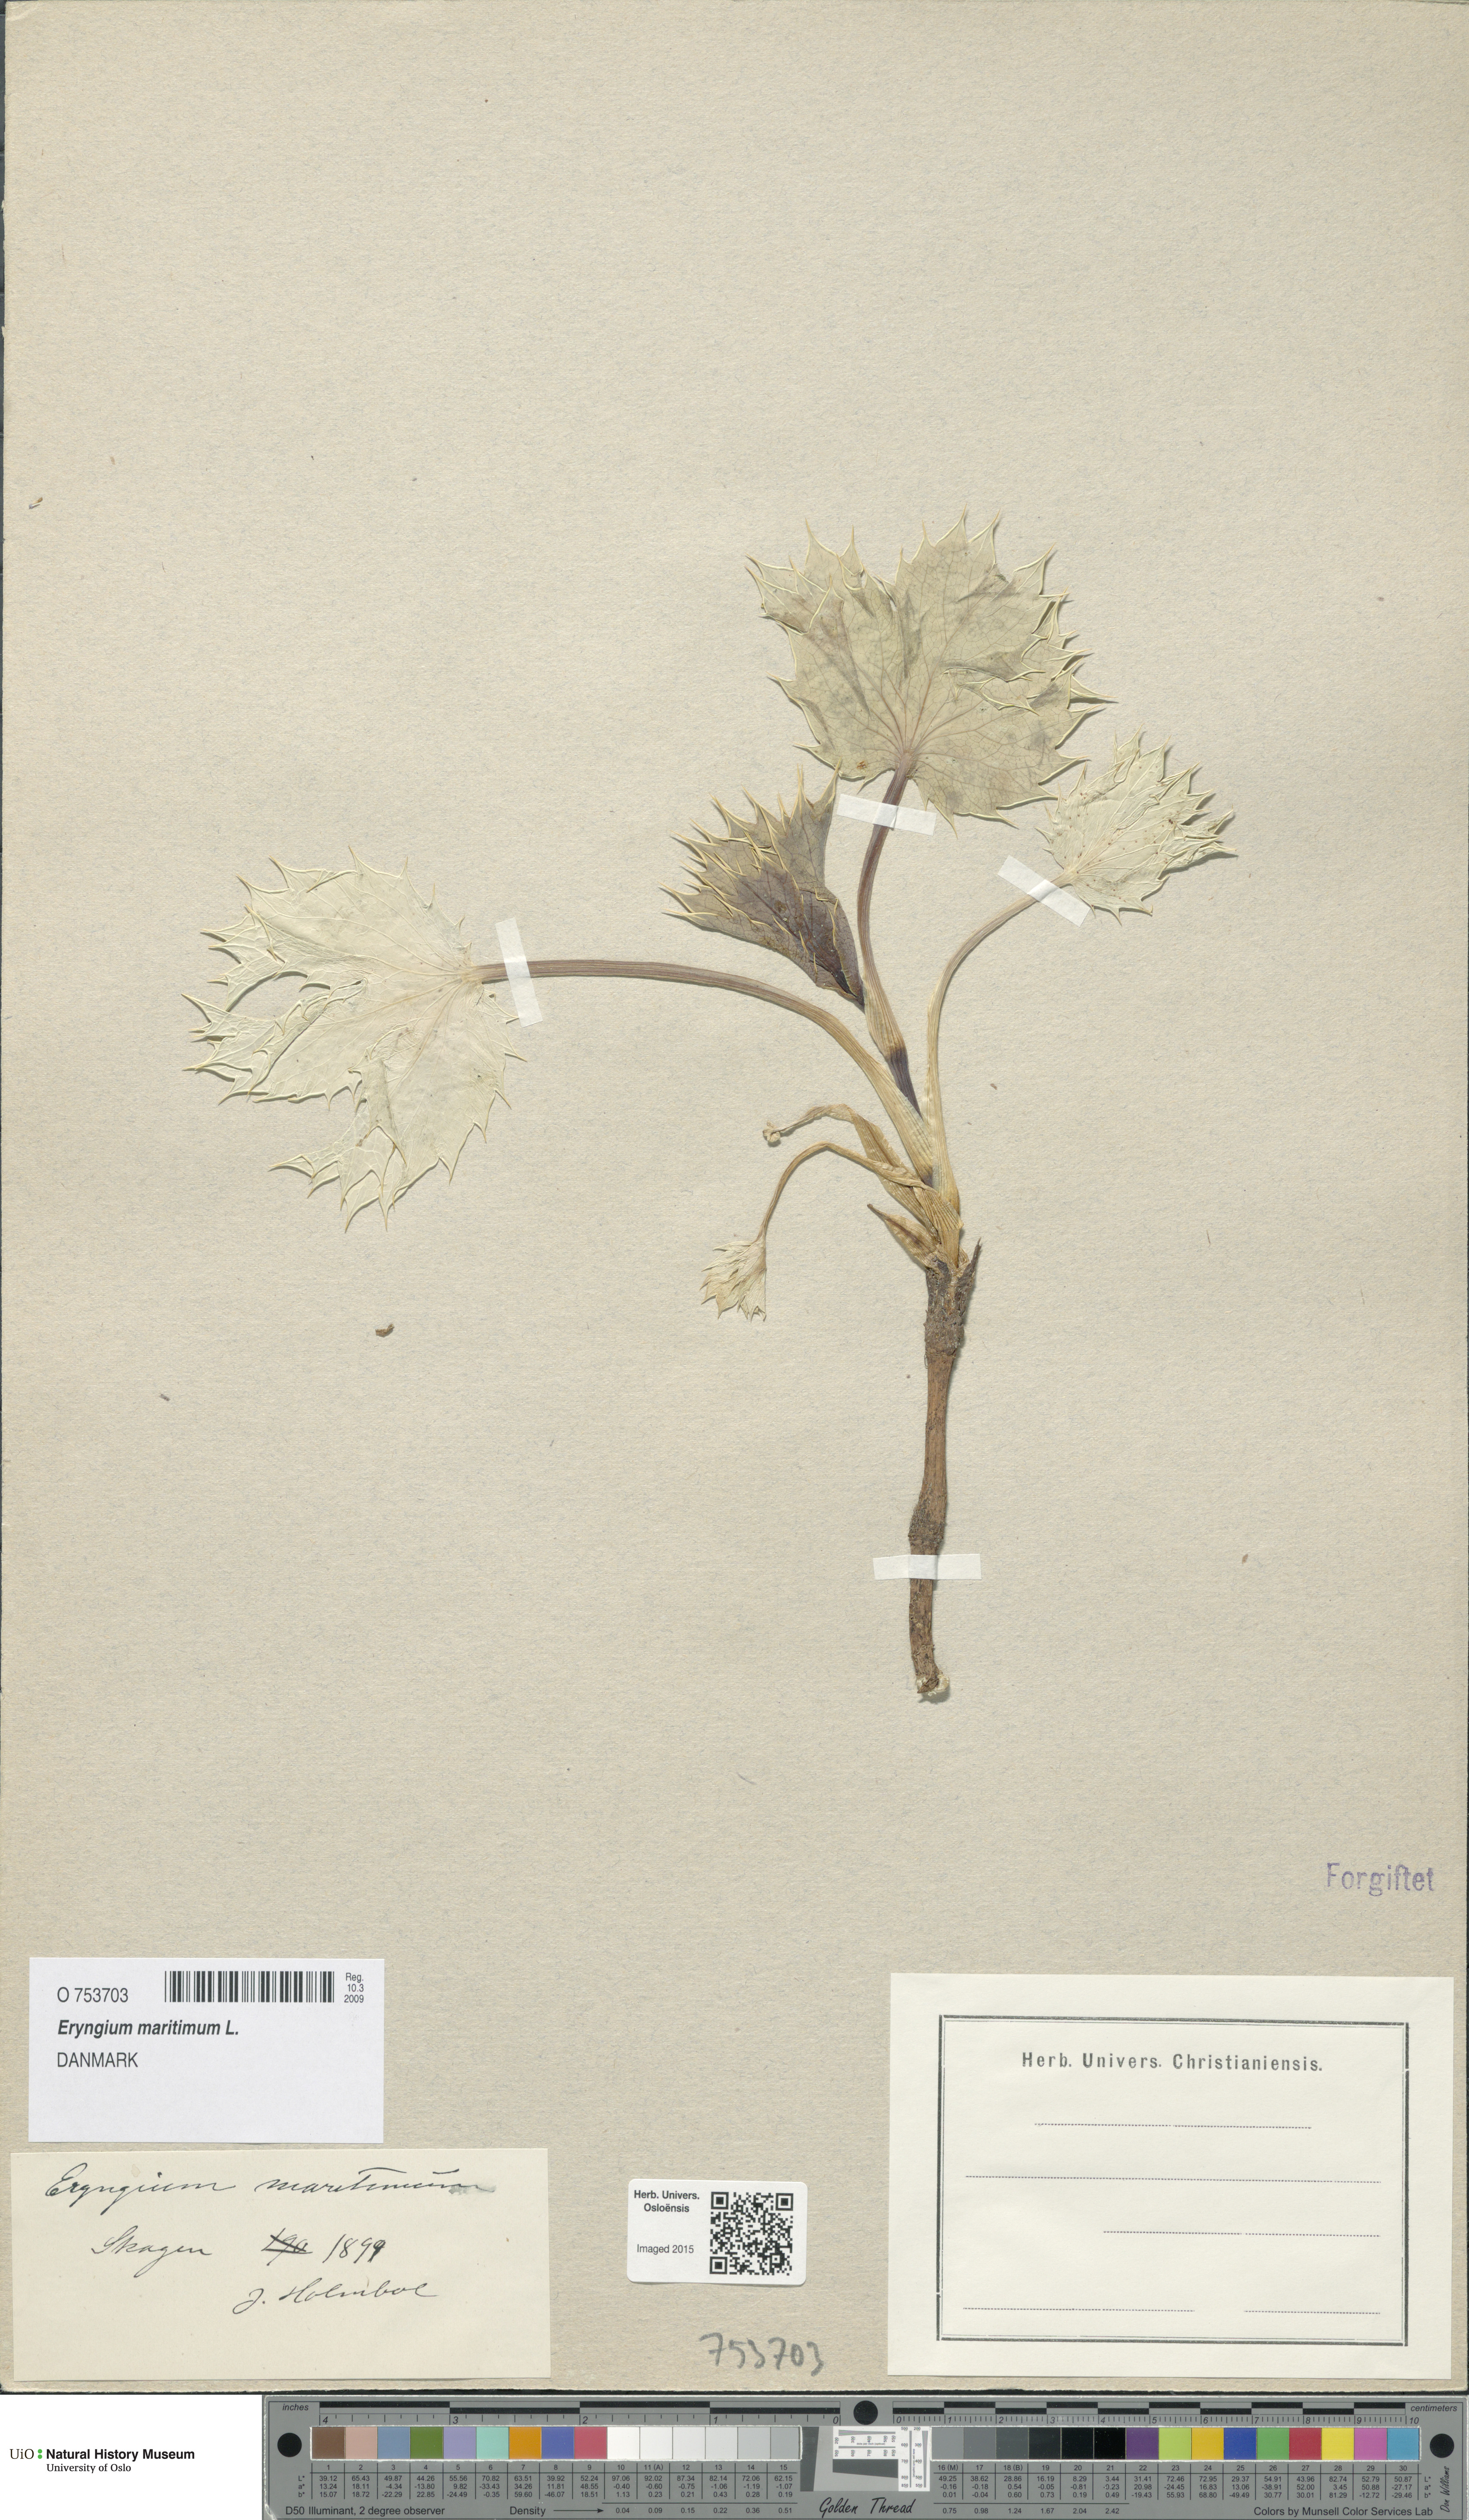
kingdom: Plantae
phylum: Tracheophyta
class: Magnoliopsida
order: Apiales
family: Apiaceae
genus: Eryngium
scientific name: Eryngium maritimum
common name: Sea-holly
